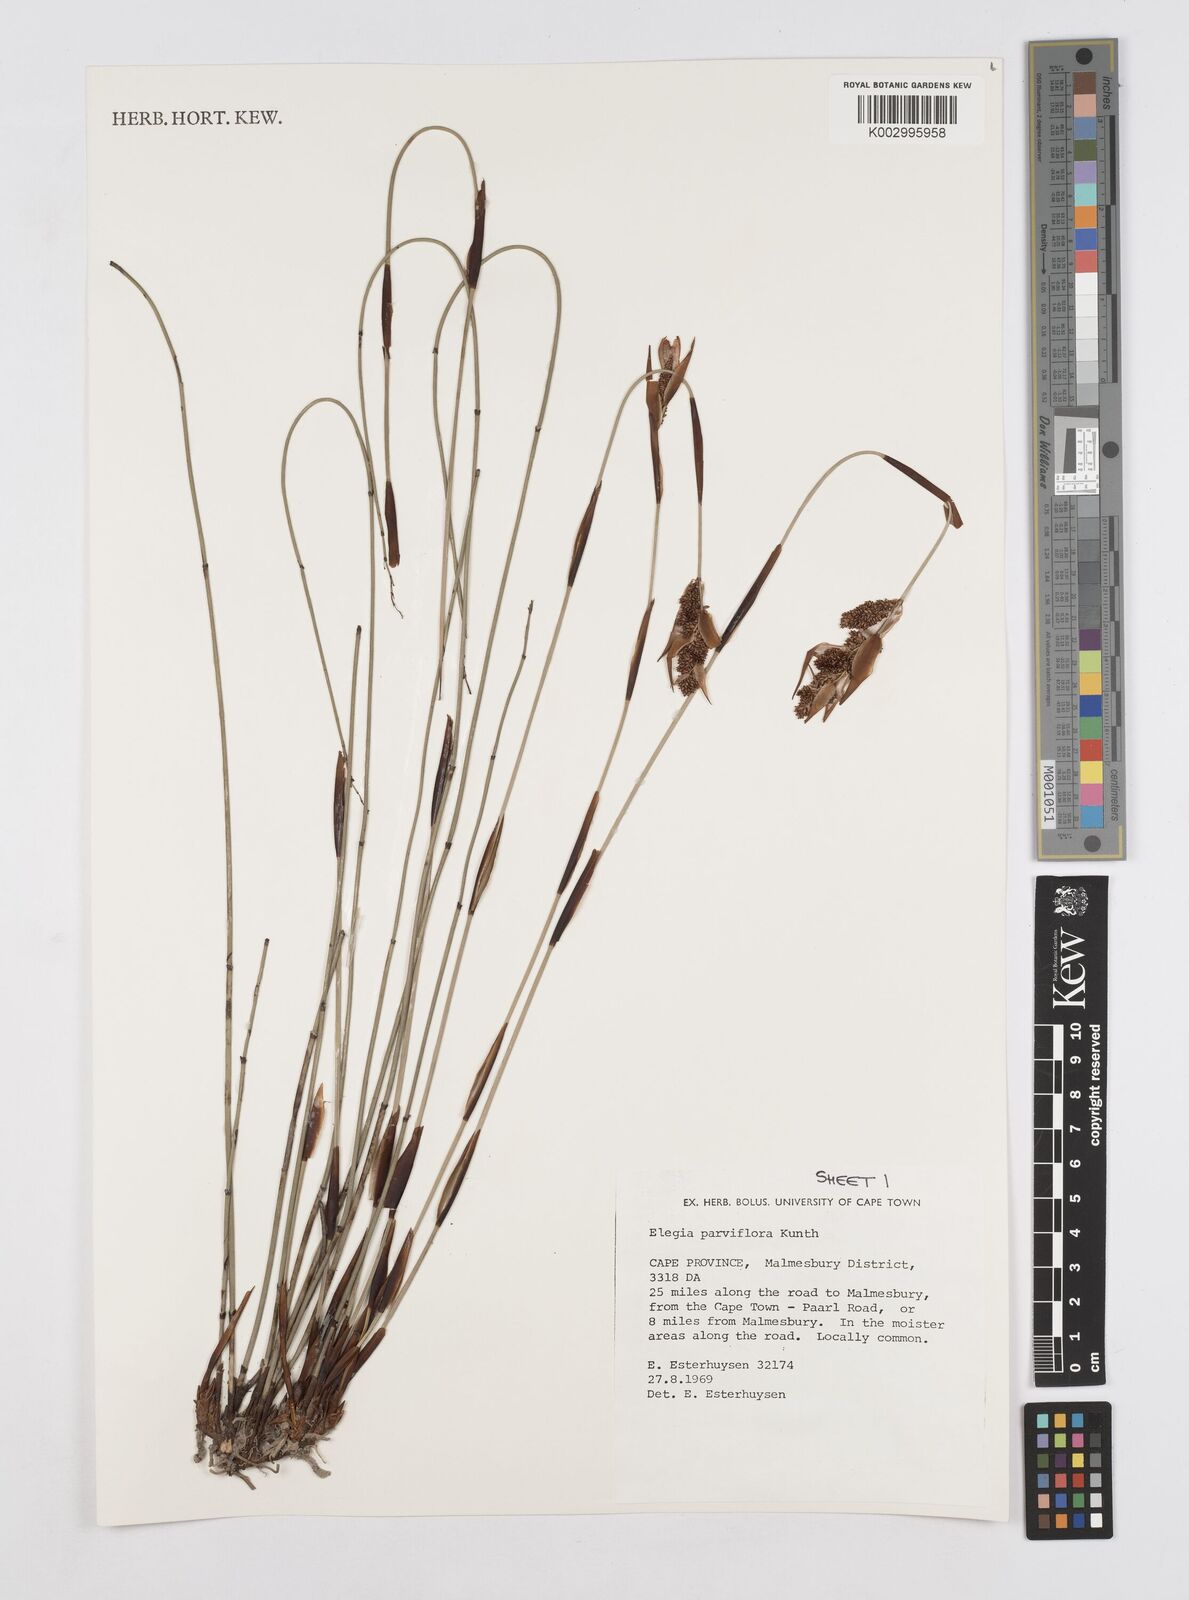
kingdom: Plantae
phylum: Tracheophyta
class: Liliopsida
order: Poales
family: Restionaceae
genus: Cannomois
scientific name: Cannomois parviflora
